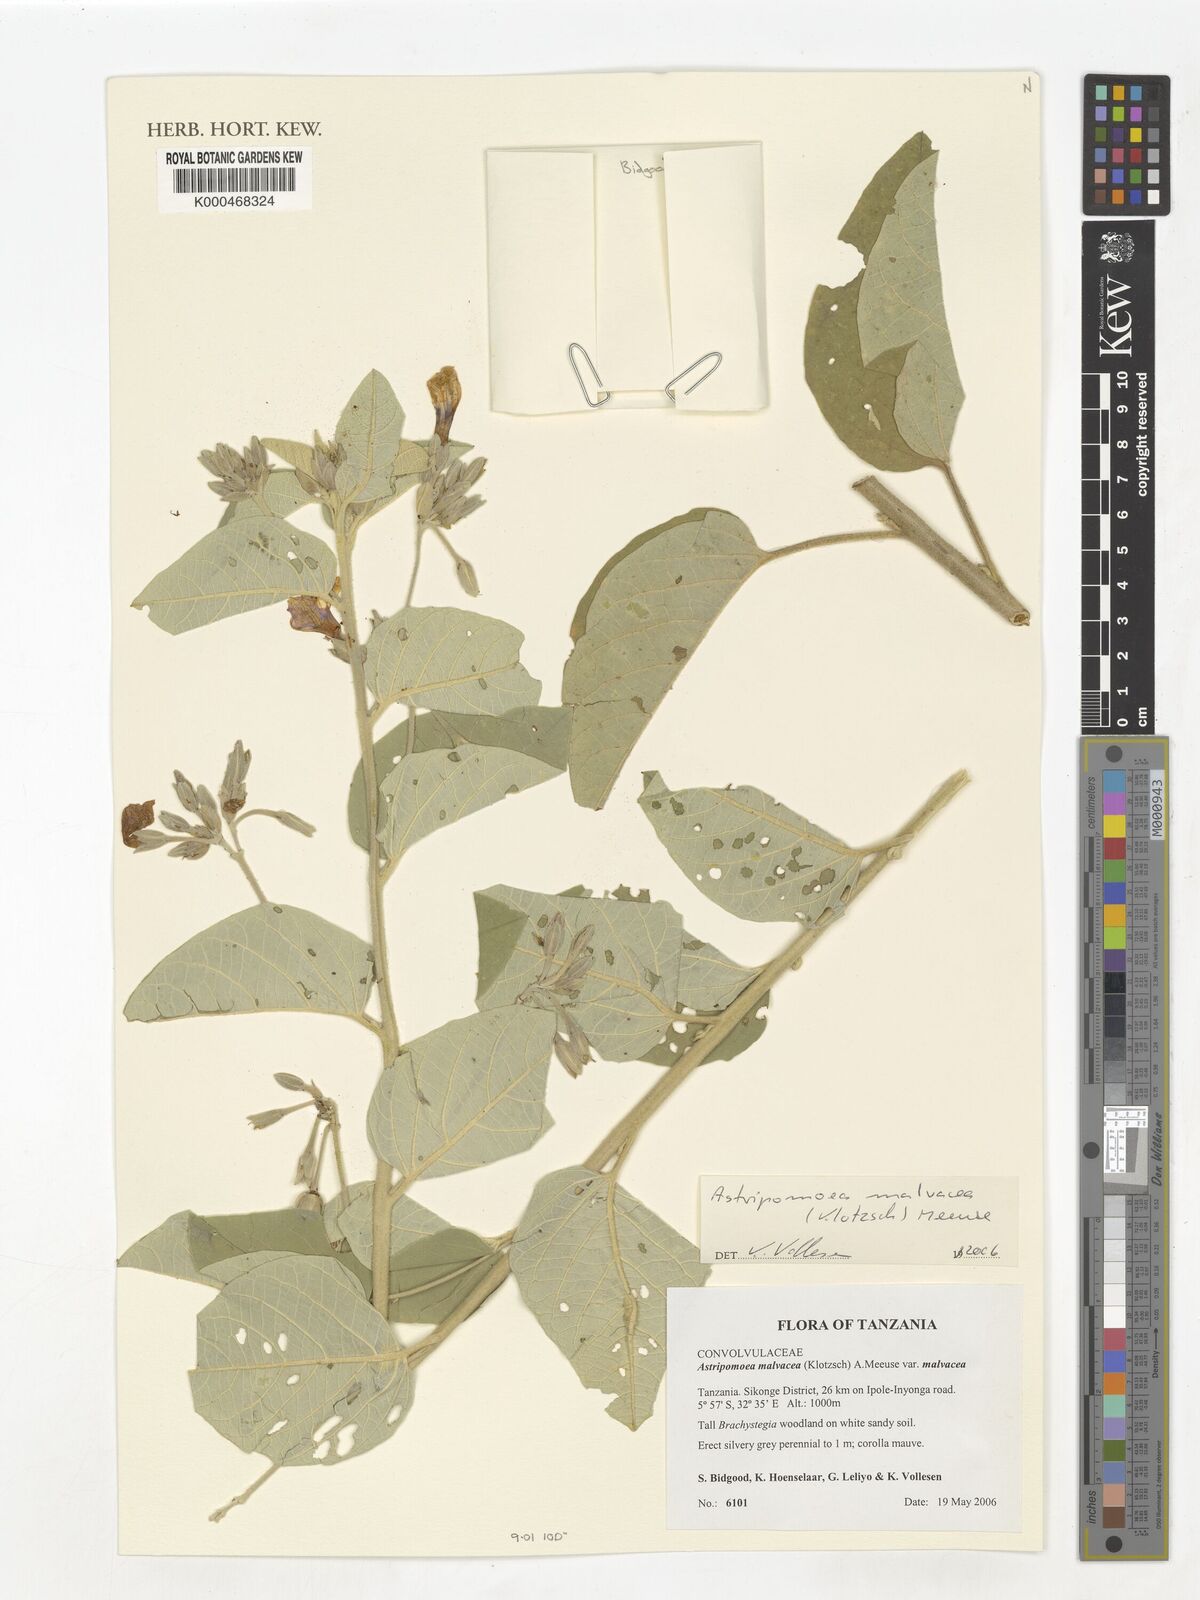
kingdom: Plantae
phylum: Tracheophyta
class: Magnoliopsida
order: Solanales
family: Convolvulaceae
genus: Astripomoea
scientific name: Astripomoea malvacea
